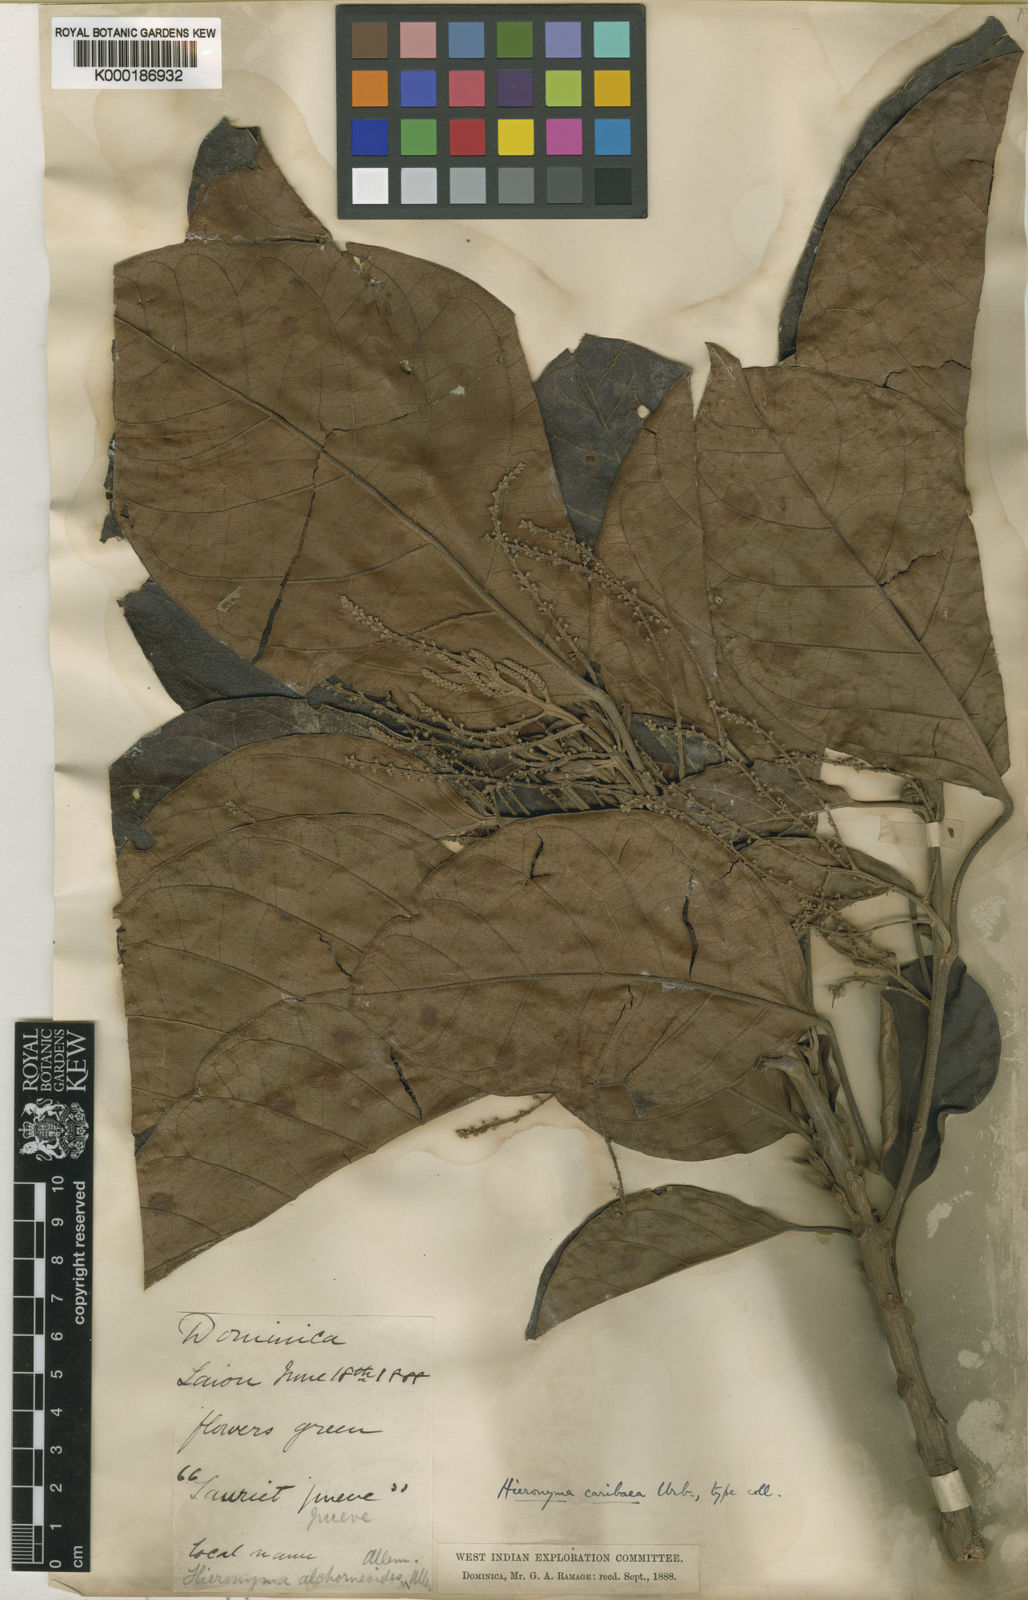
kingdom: Plantae
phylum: Tracheophyta
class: Magnoliopsida
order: Malpighiales
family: Phyllanthaceae
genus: Hieronyma
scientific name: Hieronyma
